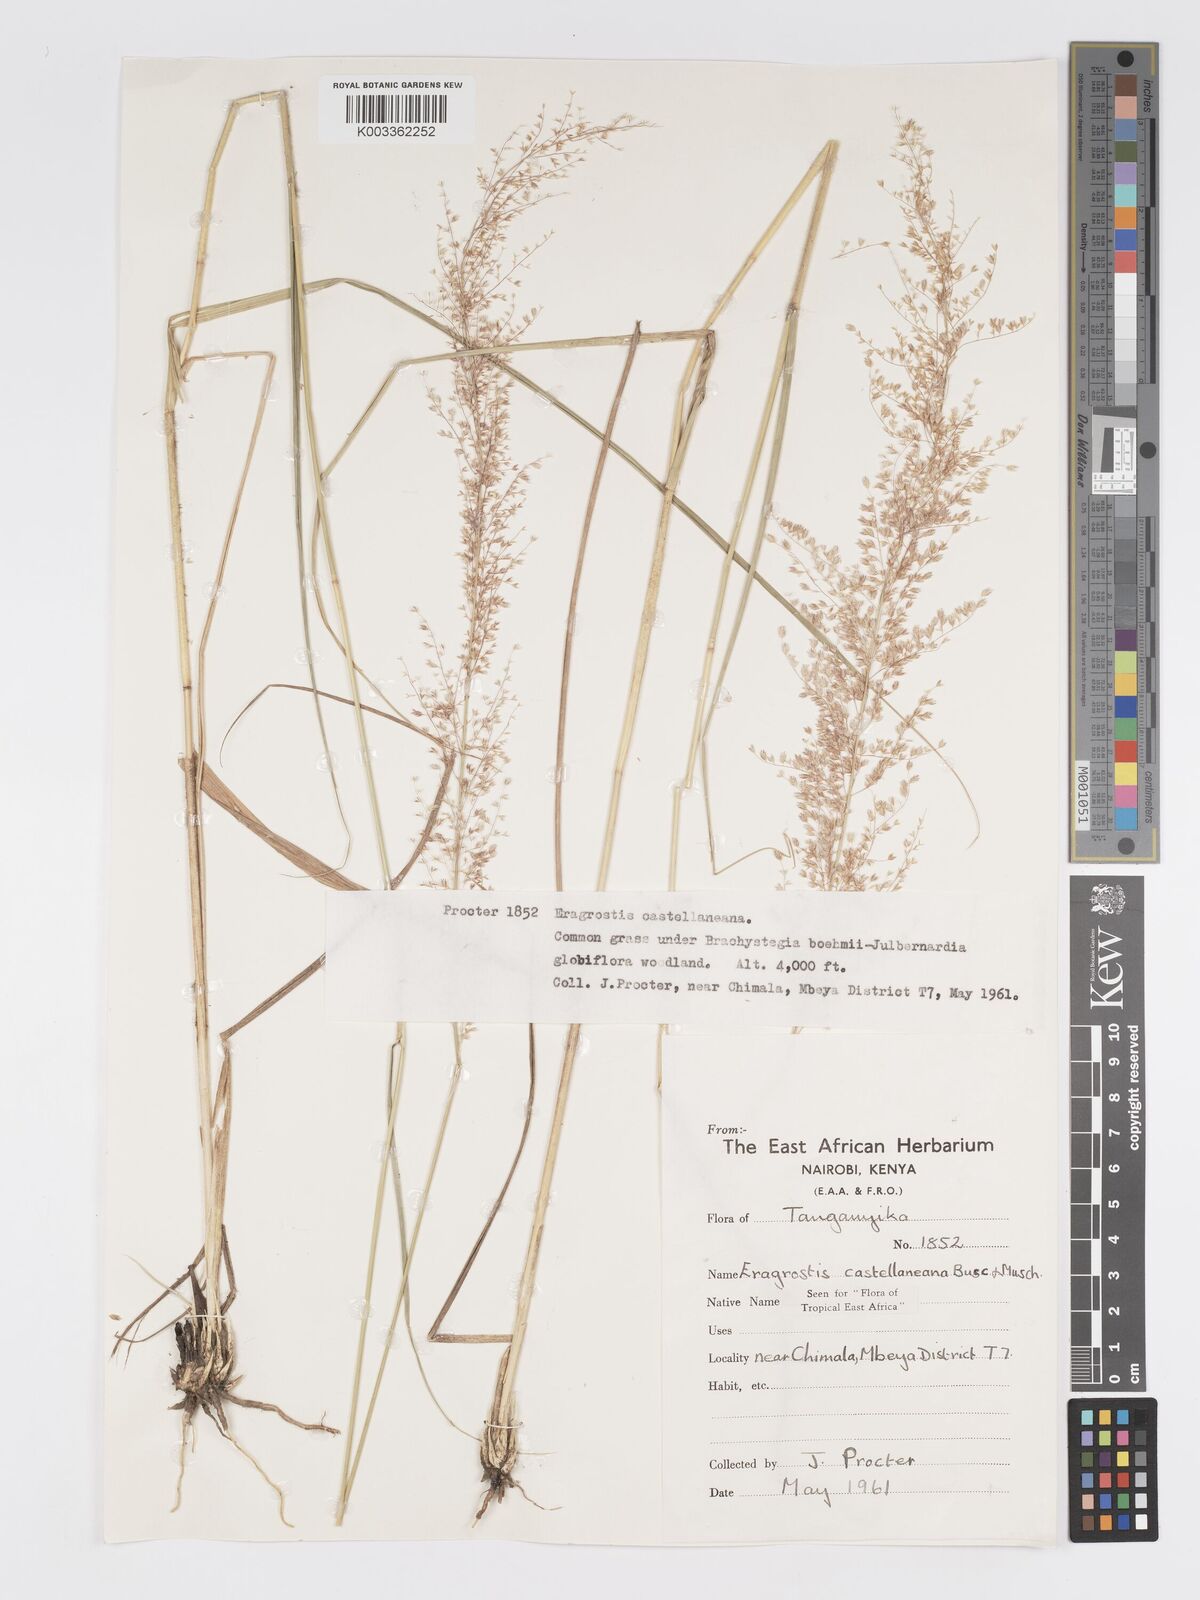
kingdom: Plantae
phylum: Tracheophyta
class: Liliopsida
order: Poales
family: Poaceae
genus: Eragrostis
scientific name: Eragrostis castellaneana
